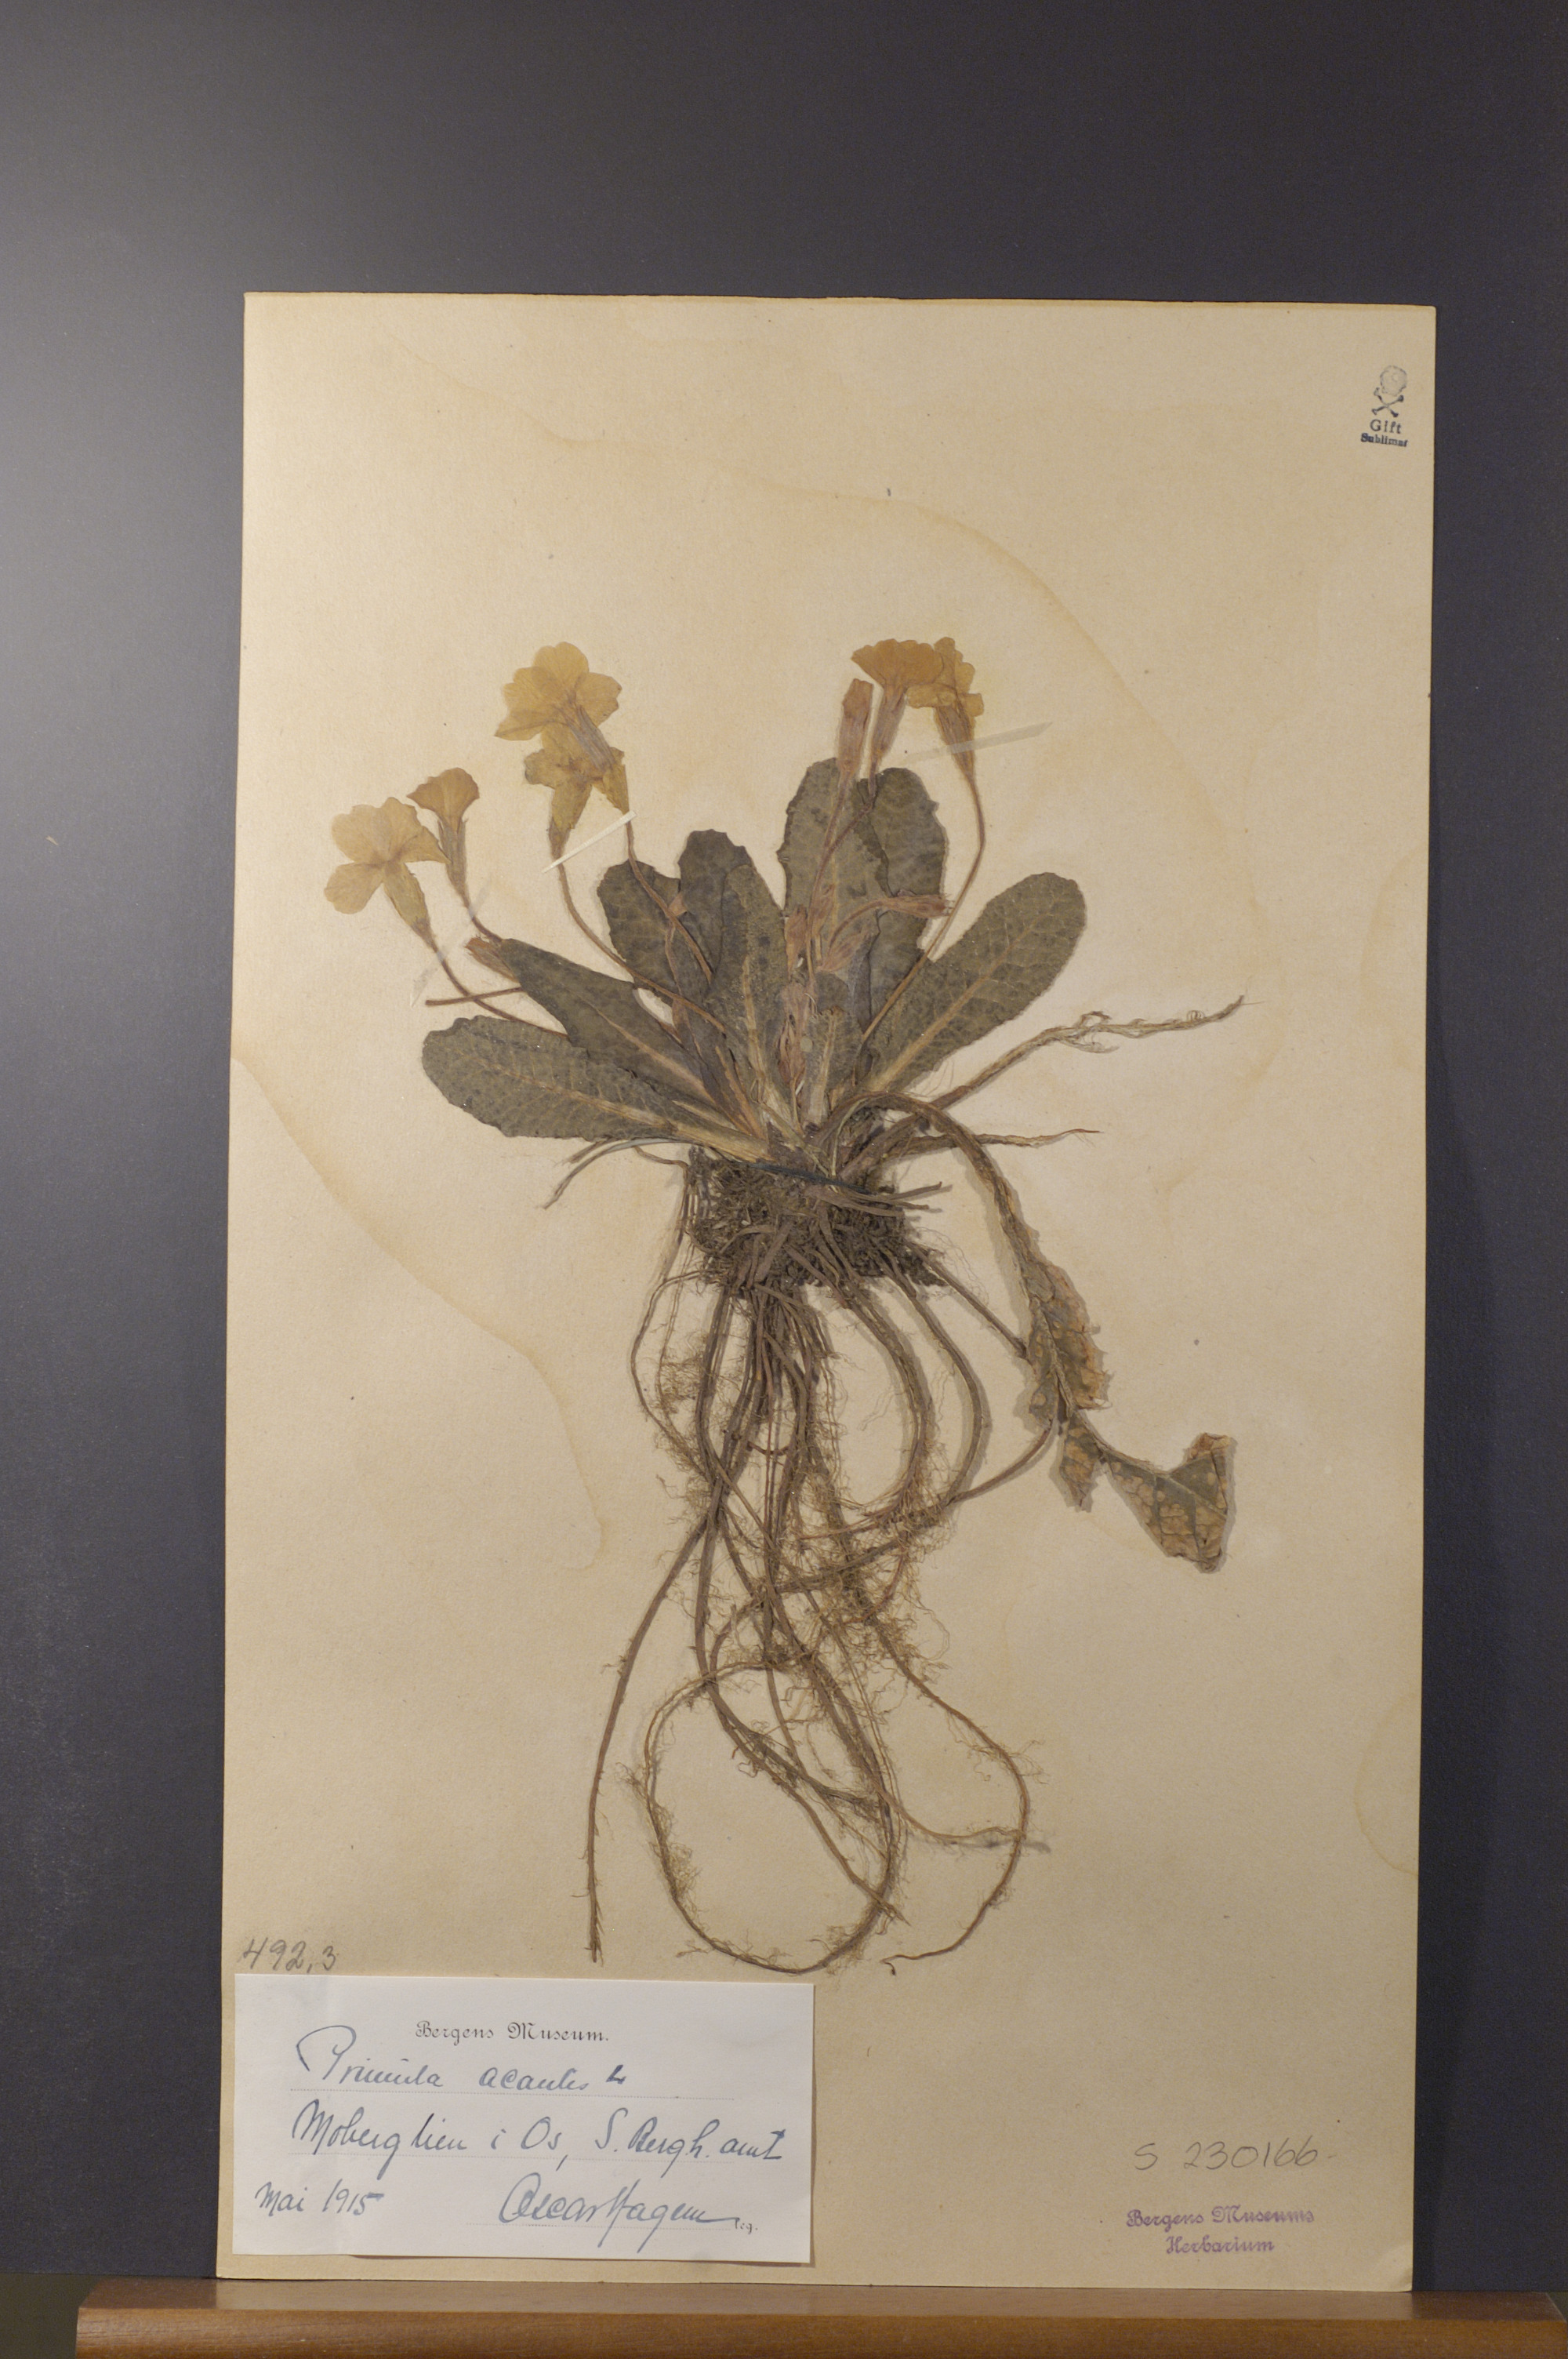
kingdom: Plantae
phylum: Tracheophyta
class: Magnoliopsida
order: Ericales
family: Primulaceae
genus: Primula
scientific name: Primula vulgaris
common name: Primrose
